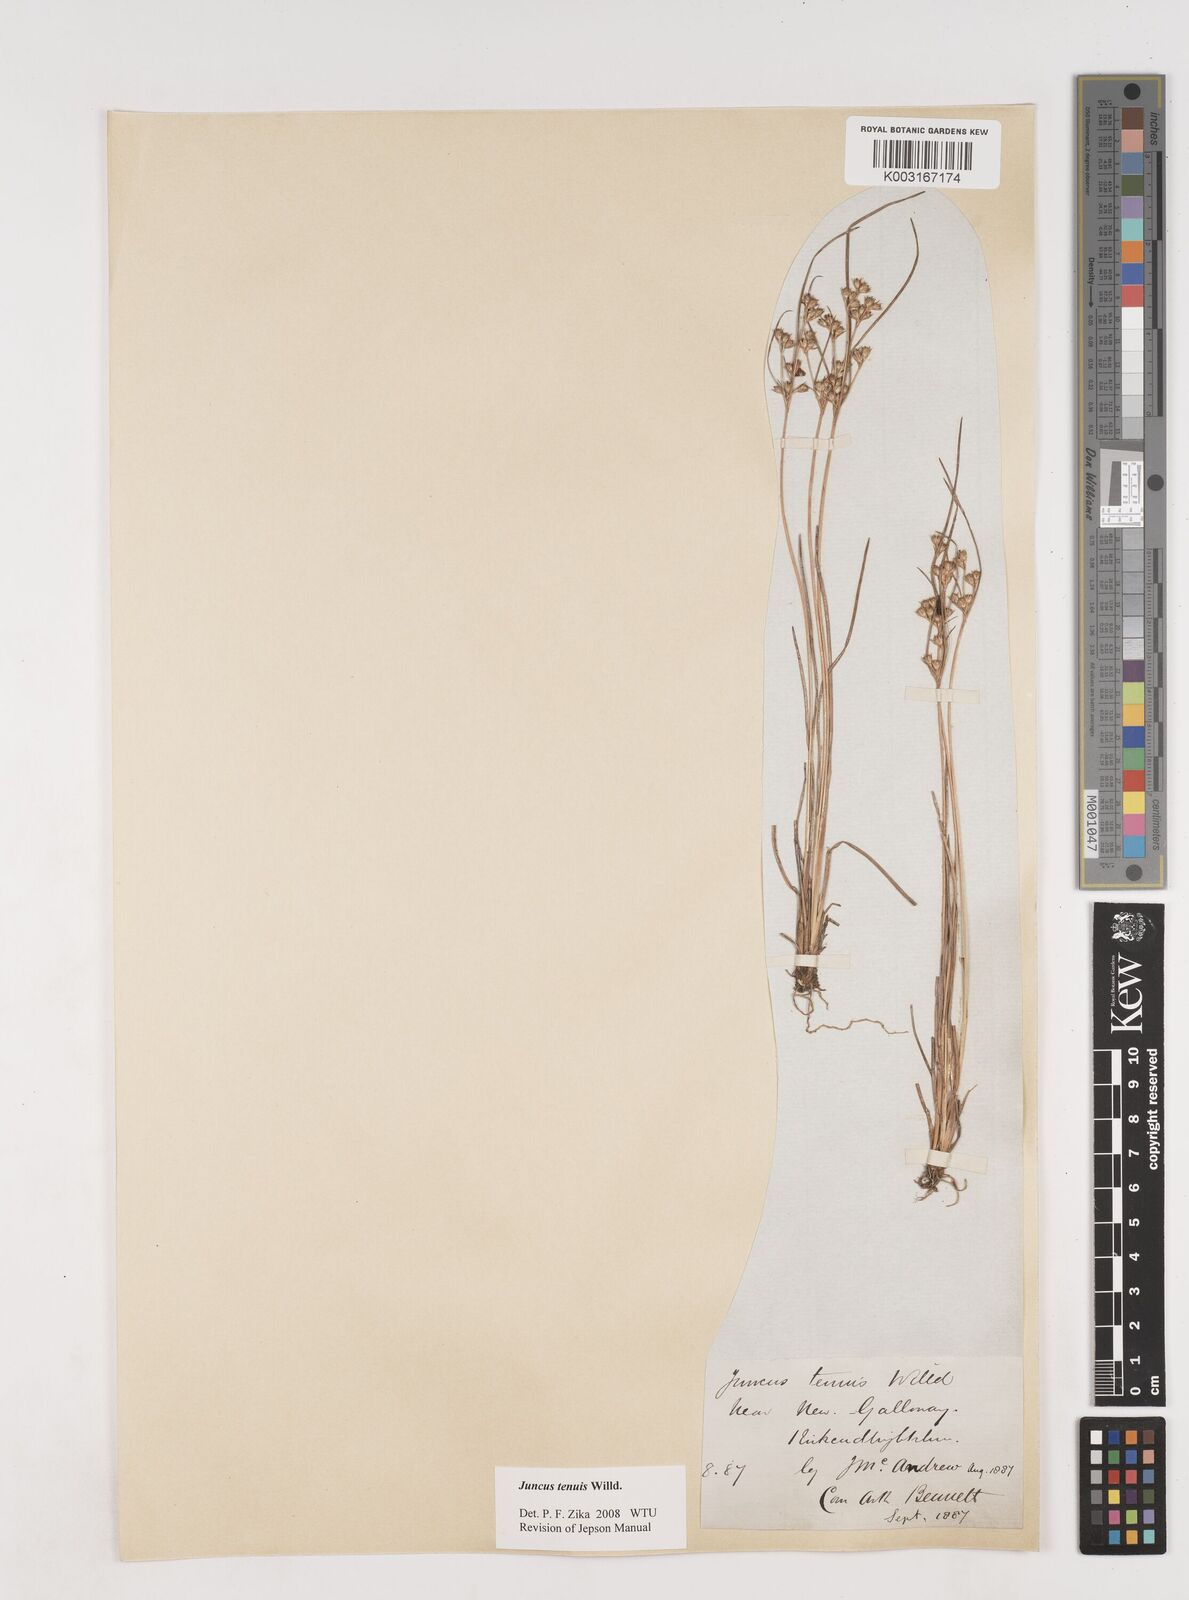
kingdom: Plantae
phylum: Tracheophyta
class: Liliopsida
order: Poales
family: Juncaceae
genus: Juncus
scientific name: Juncus tenuis
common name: Slender rush
